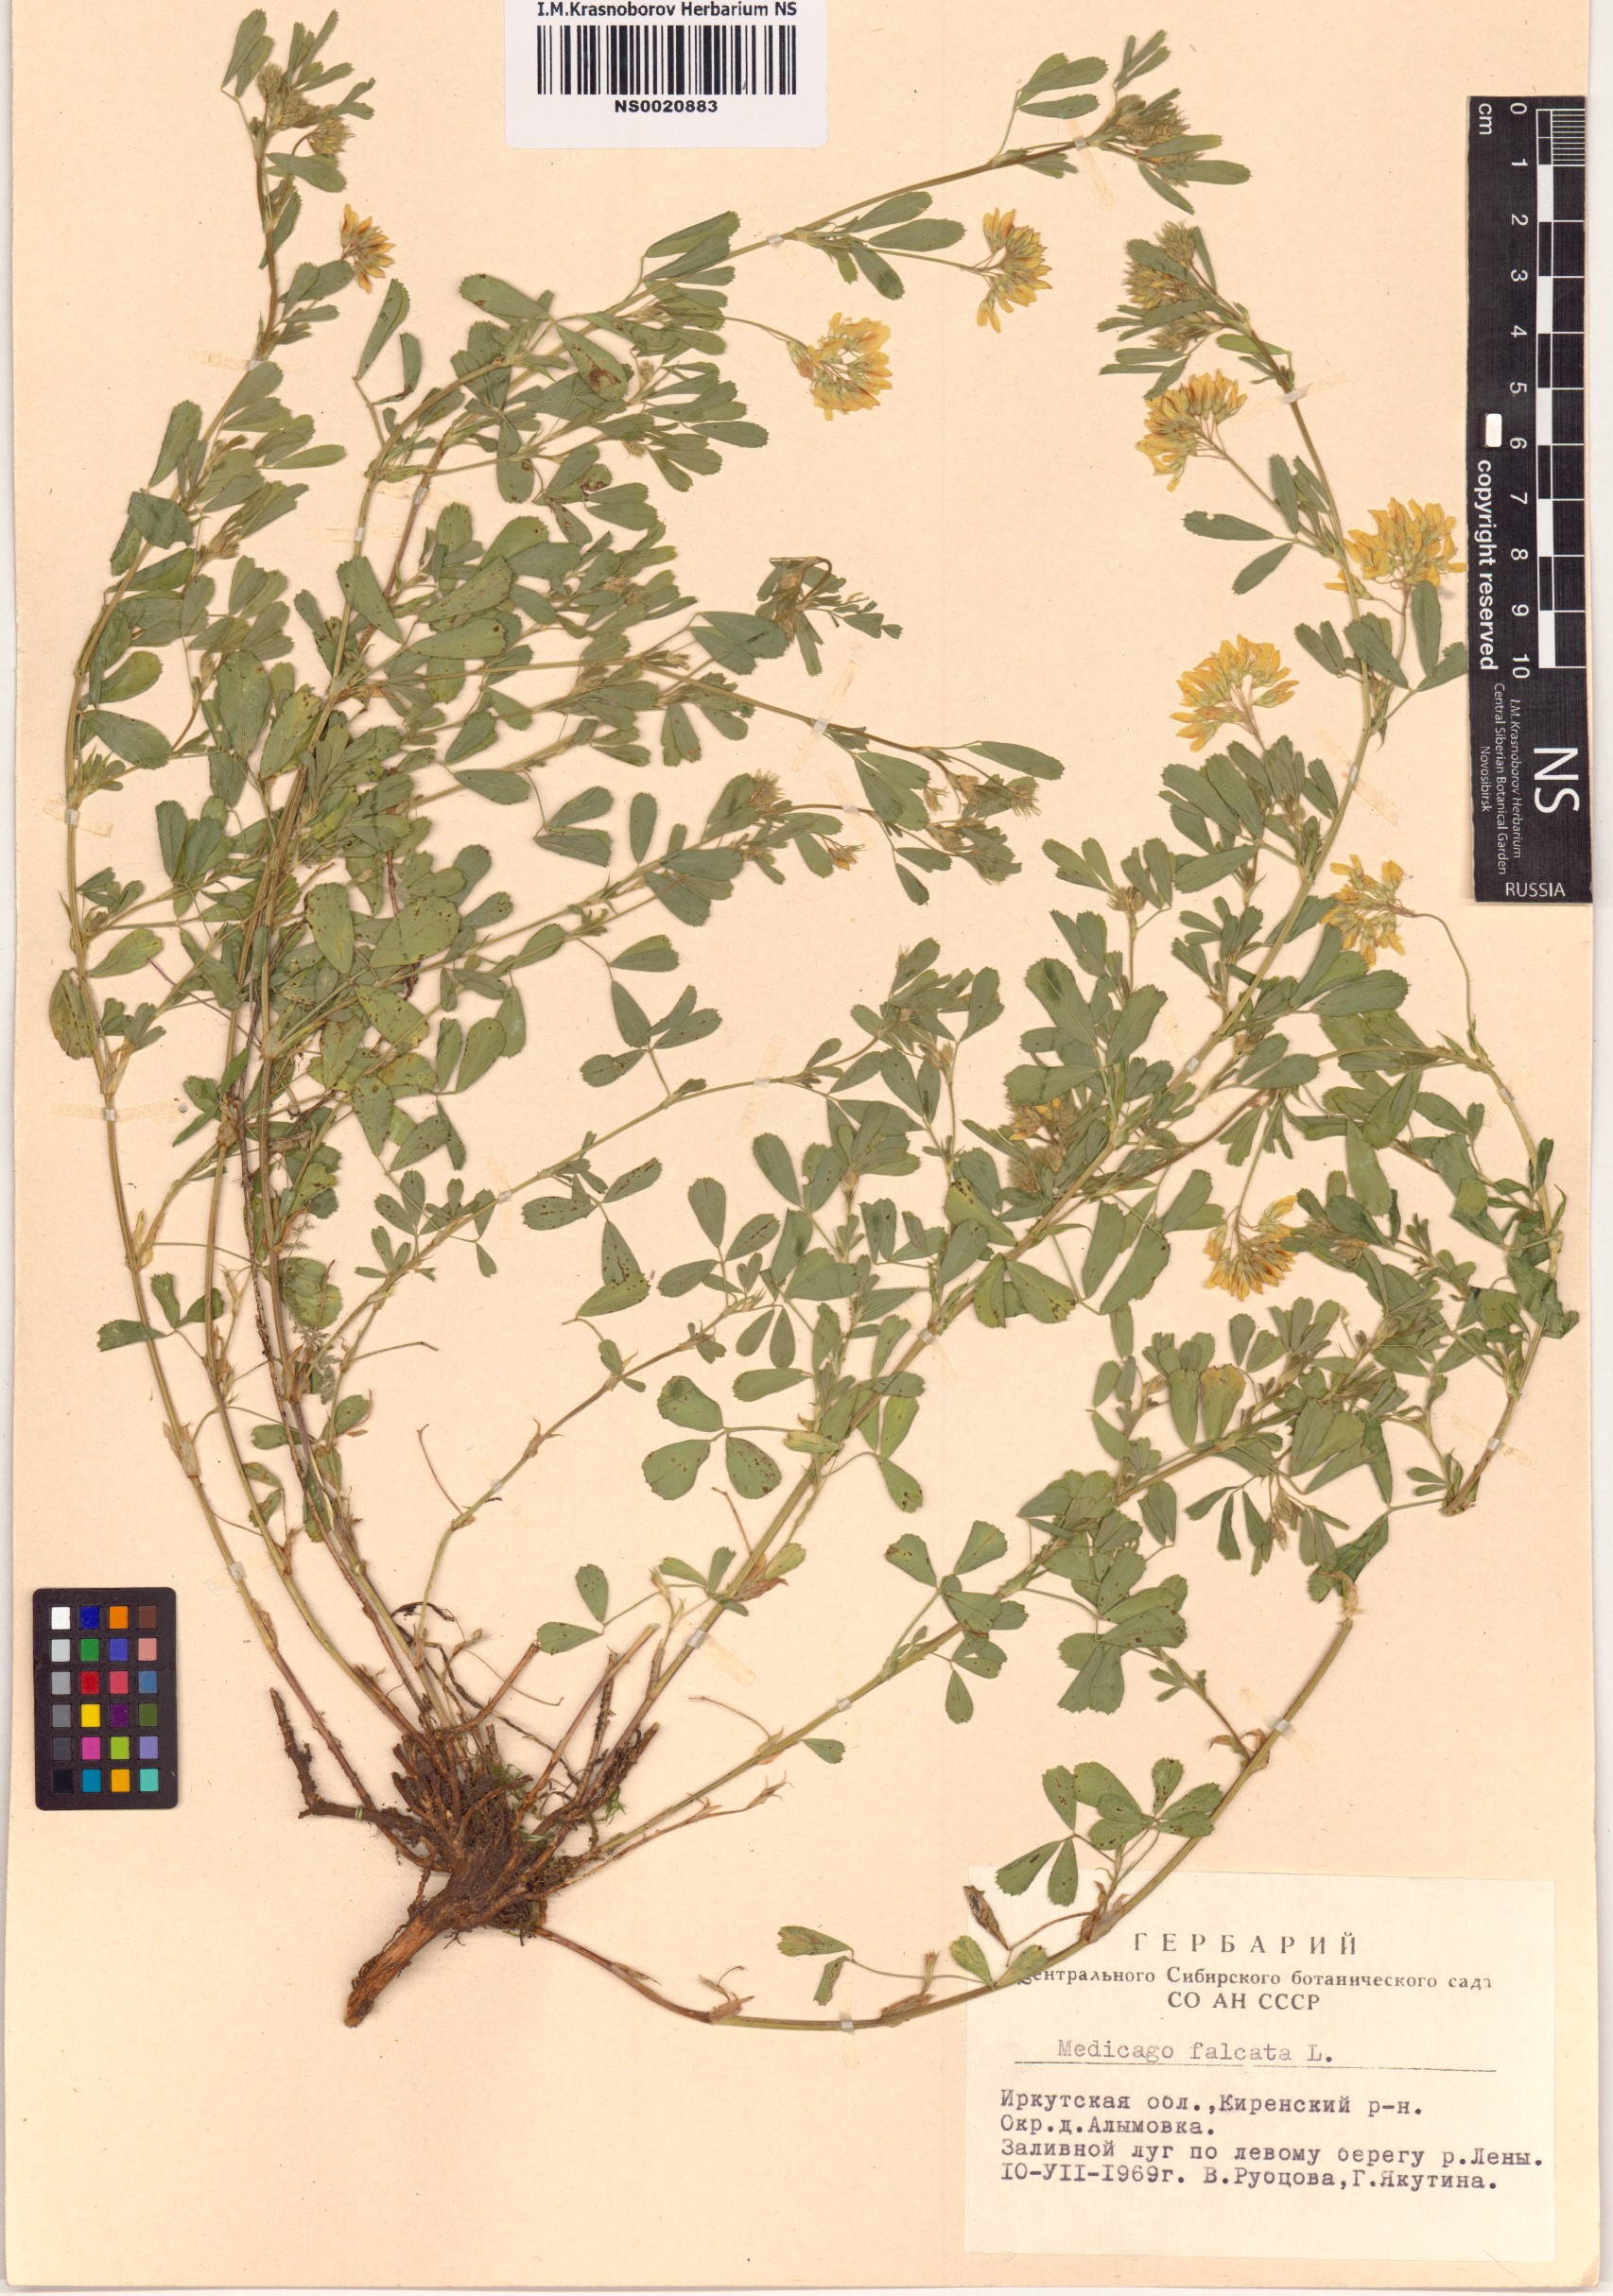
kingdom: Plantae
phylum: Tracheophyta
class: Magnoliopsida
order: Fabales
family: Fabaceae
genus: Medicago
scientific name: Medicago falcata
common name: Sickle medick
